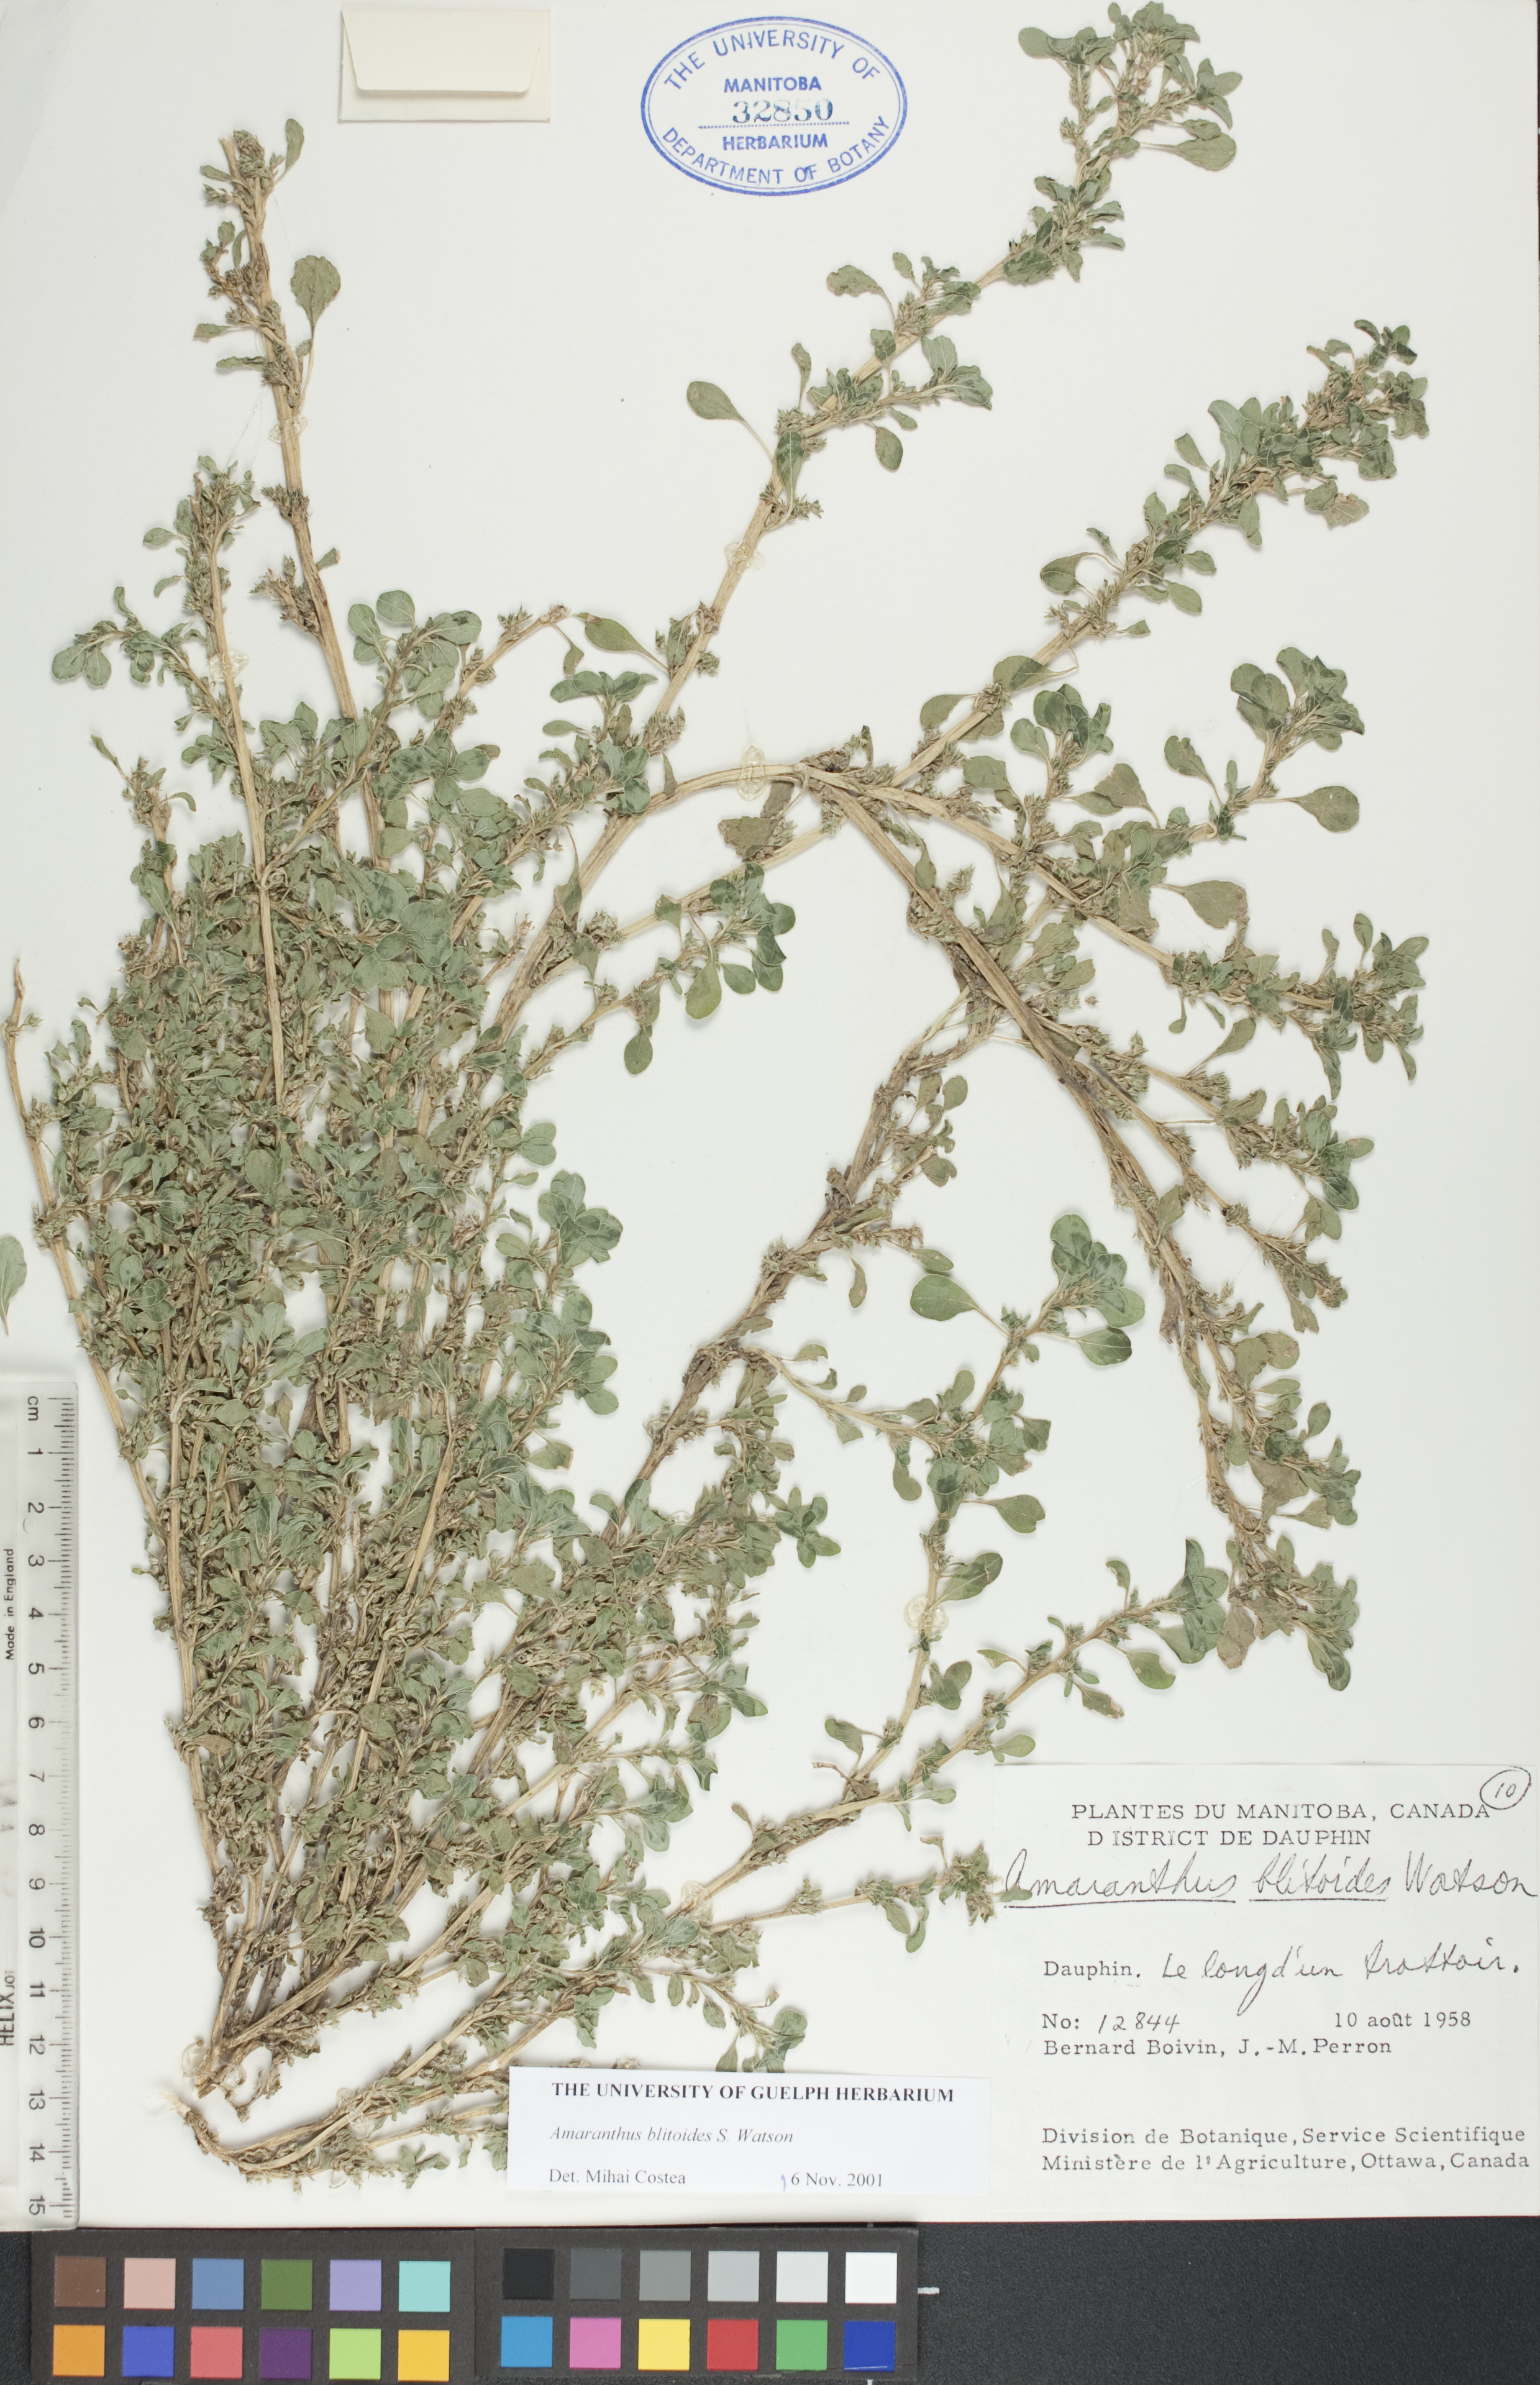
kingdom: Plantae
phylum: Tracheophyta
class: Magnoliopsida
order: Caryophyllales
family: Amaranthaceae
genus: Amaranthus
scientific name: Amaranthus blitoides
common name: Prostrate pigweed
